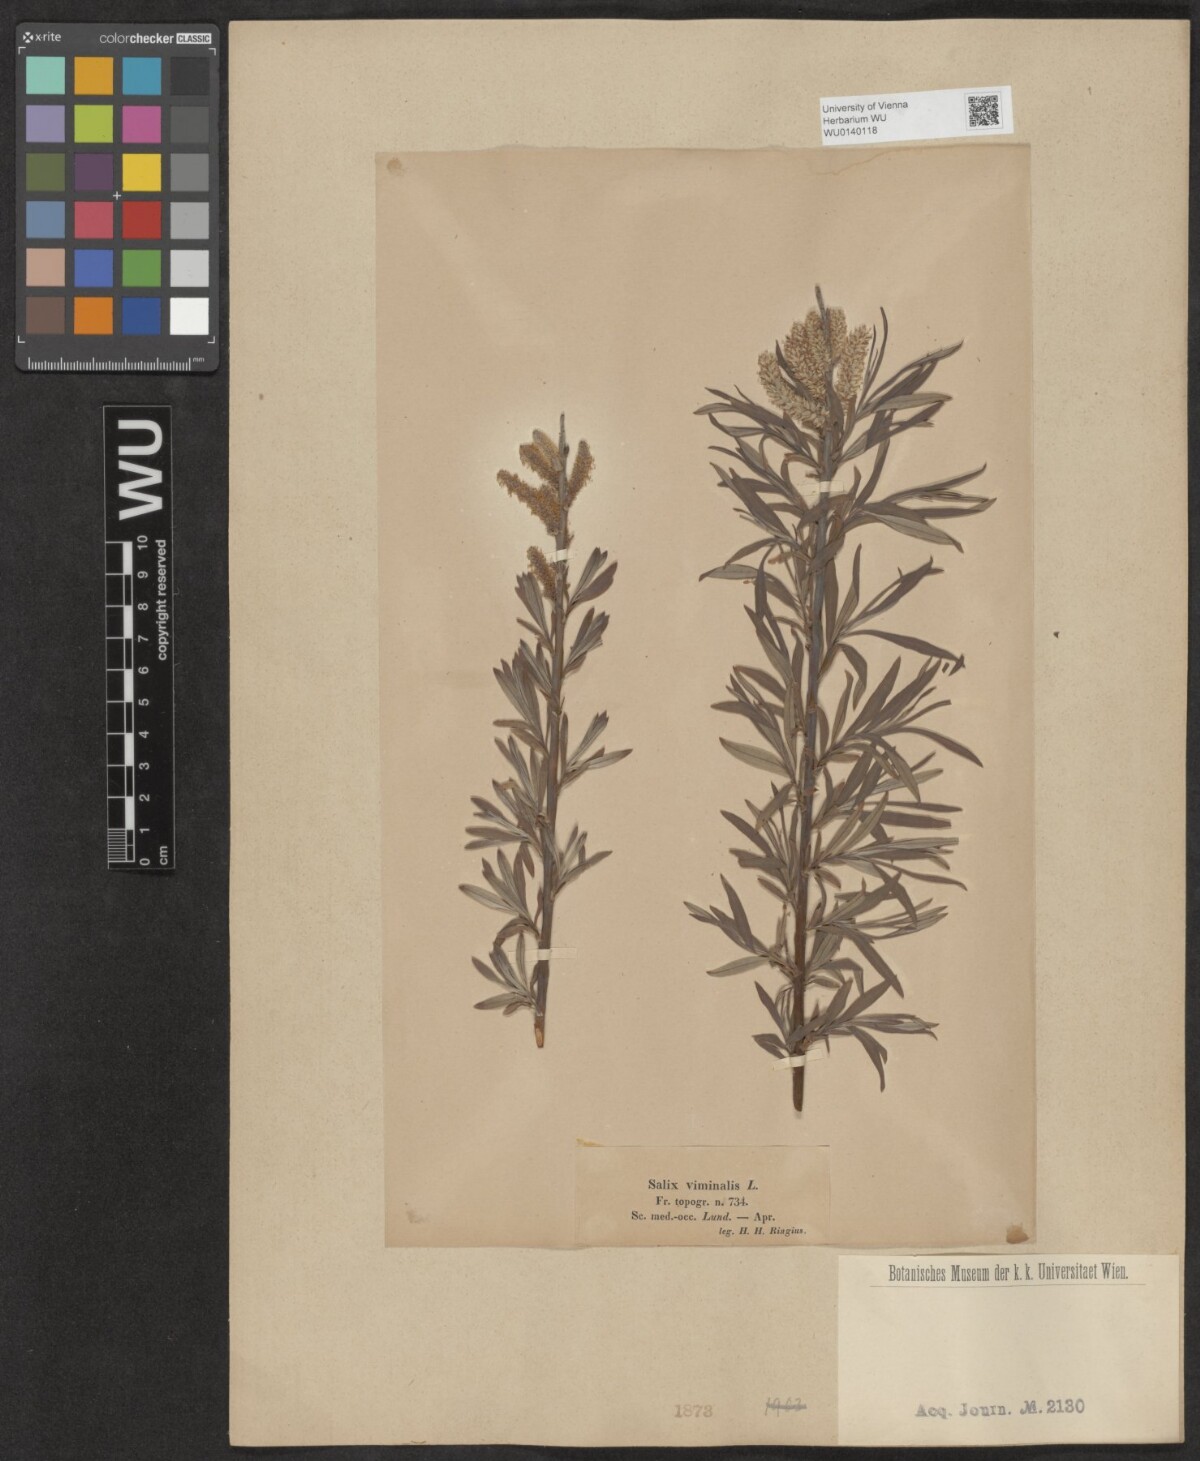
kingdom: Plantae
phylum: Tracheophyta
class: Magnoliopsida
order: Malpighiales
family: Salicaceae
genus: Salix
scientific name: Salix viminalis
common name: Osier
